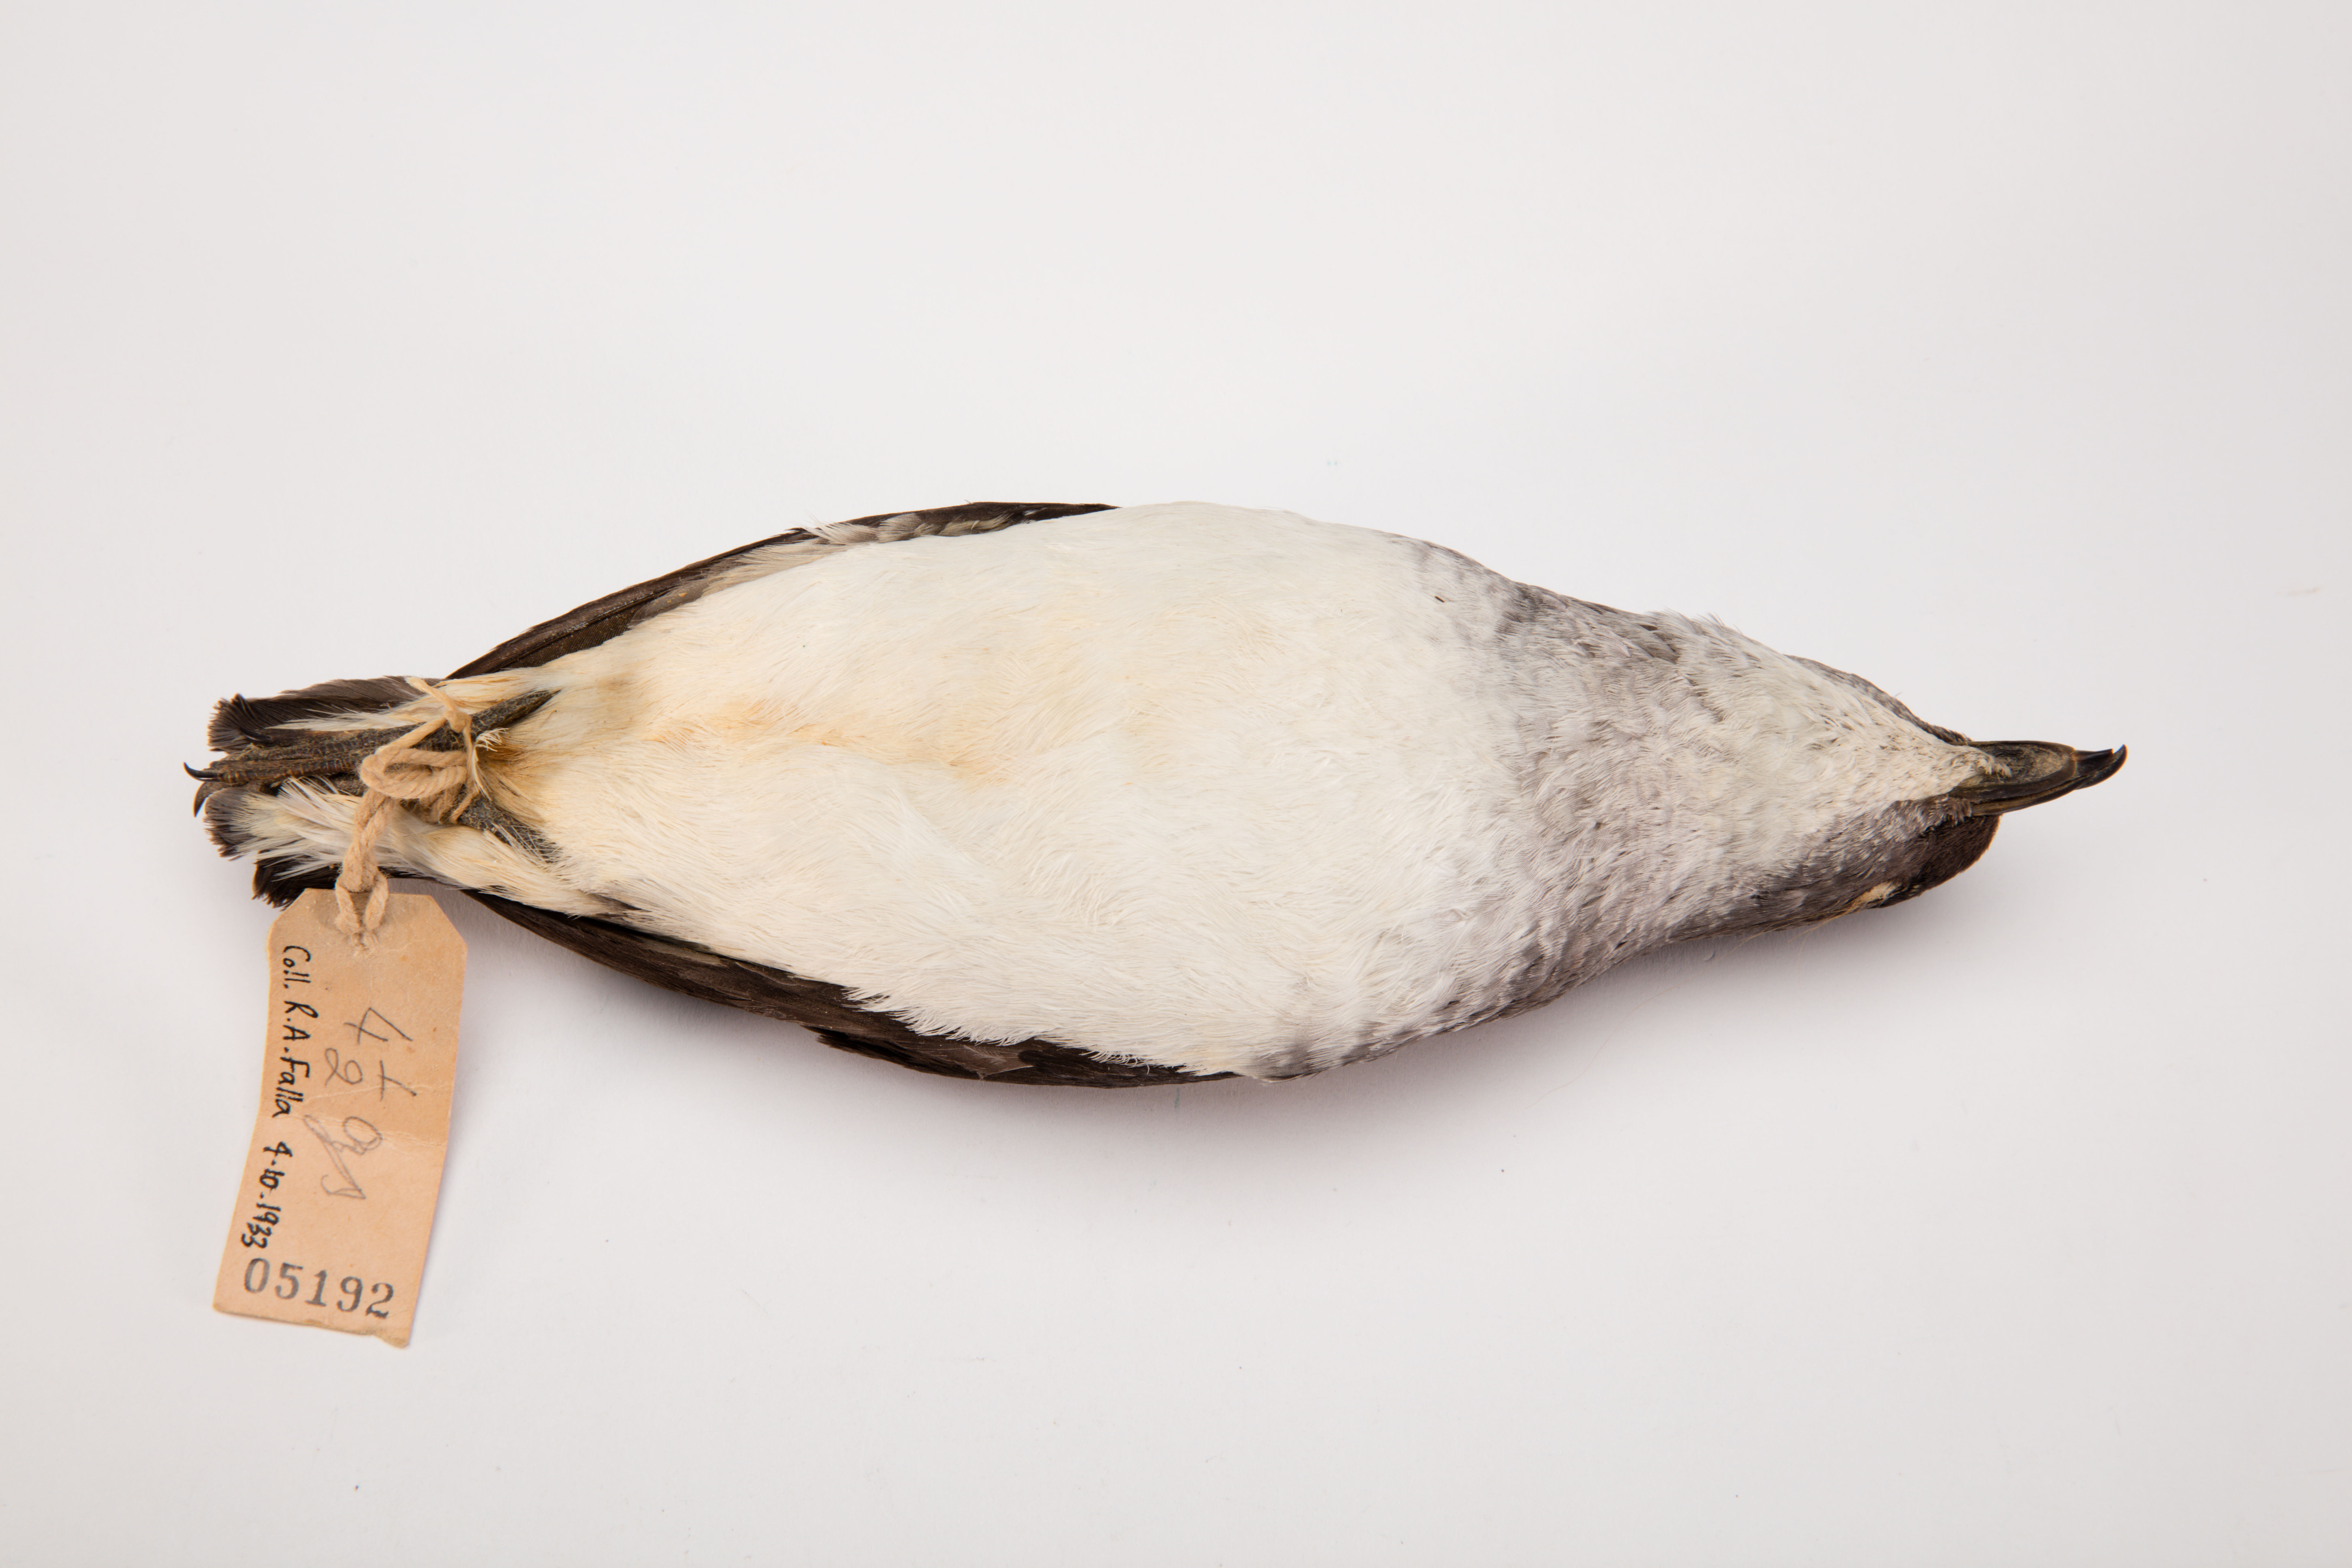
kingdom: Animalia
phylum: Chordata
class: Aves
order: Procellariiformes
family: Pelecanoididae
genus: Pelecanoides
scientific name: Pelecanoides urinatrix
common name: Common diving-petrel
